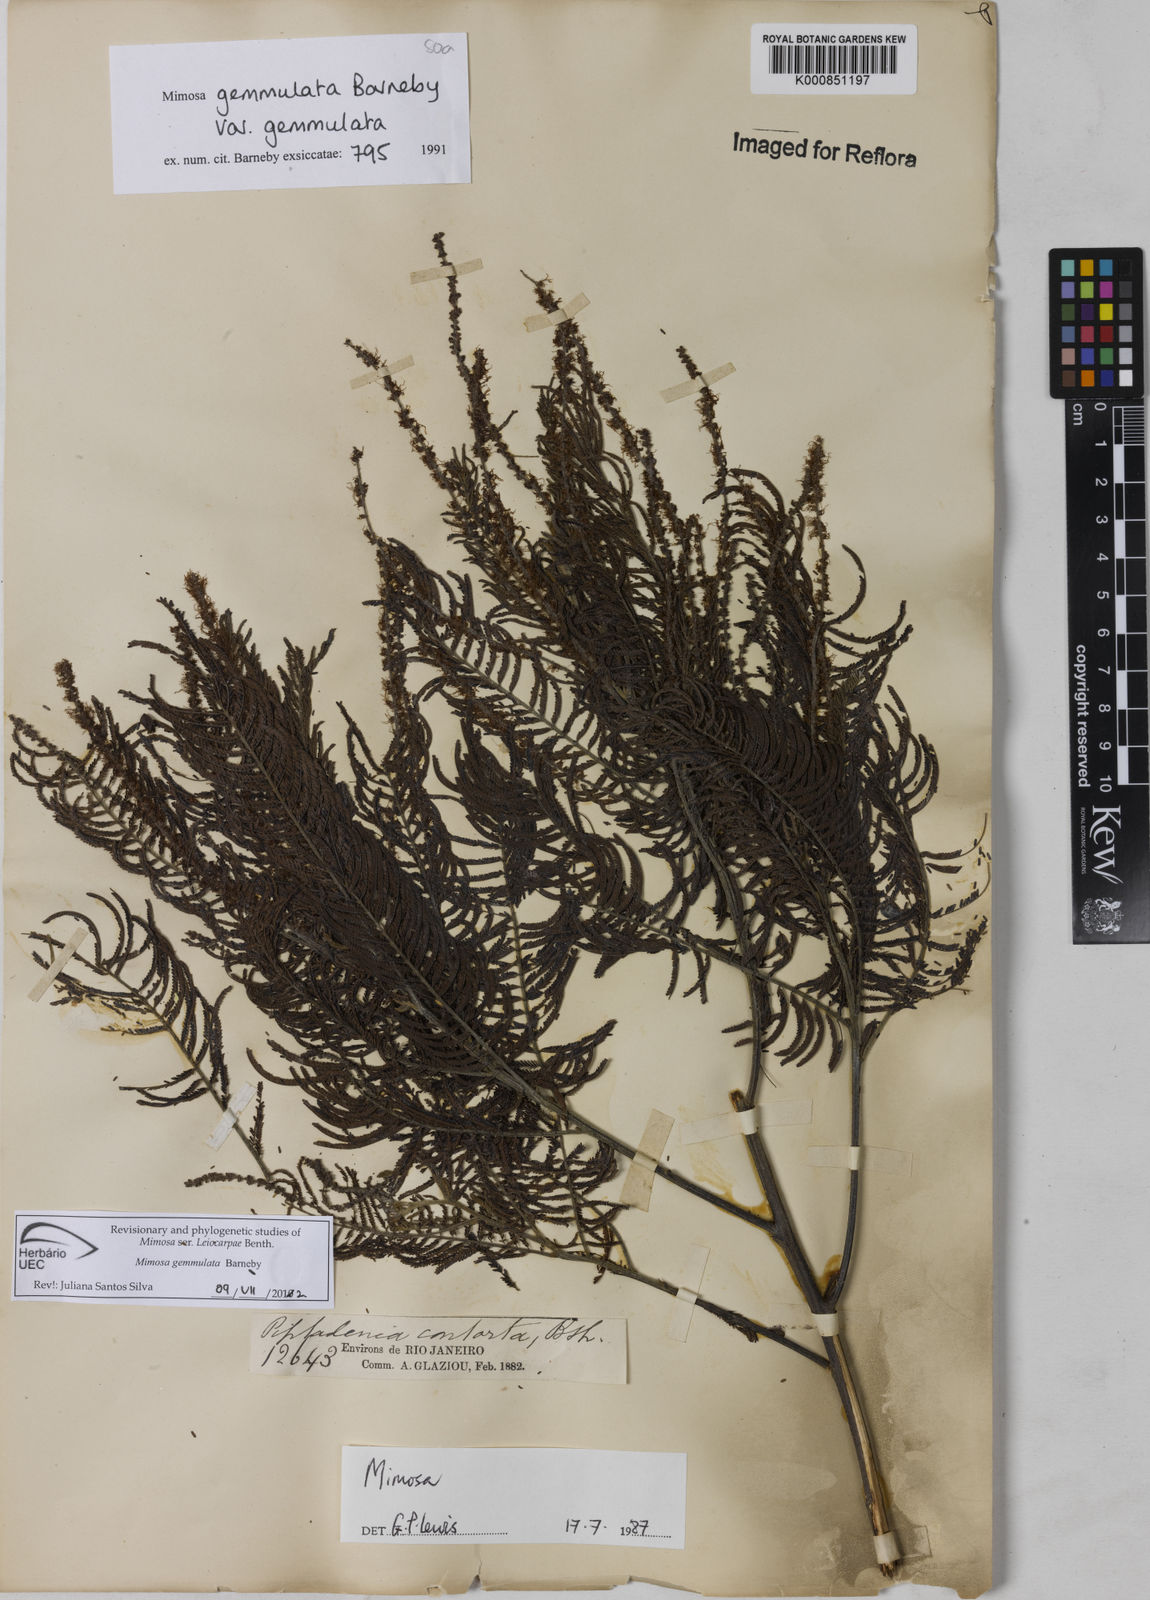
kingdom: Plantae
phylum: Tracheophyta
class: Magnoliopsida
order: Fabales
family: Fabaceae
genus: Mimosa
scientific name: Mimosa gemmulata
